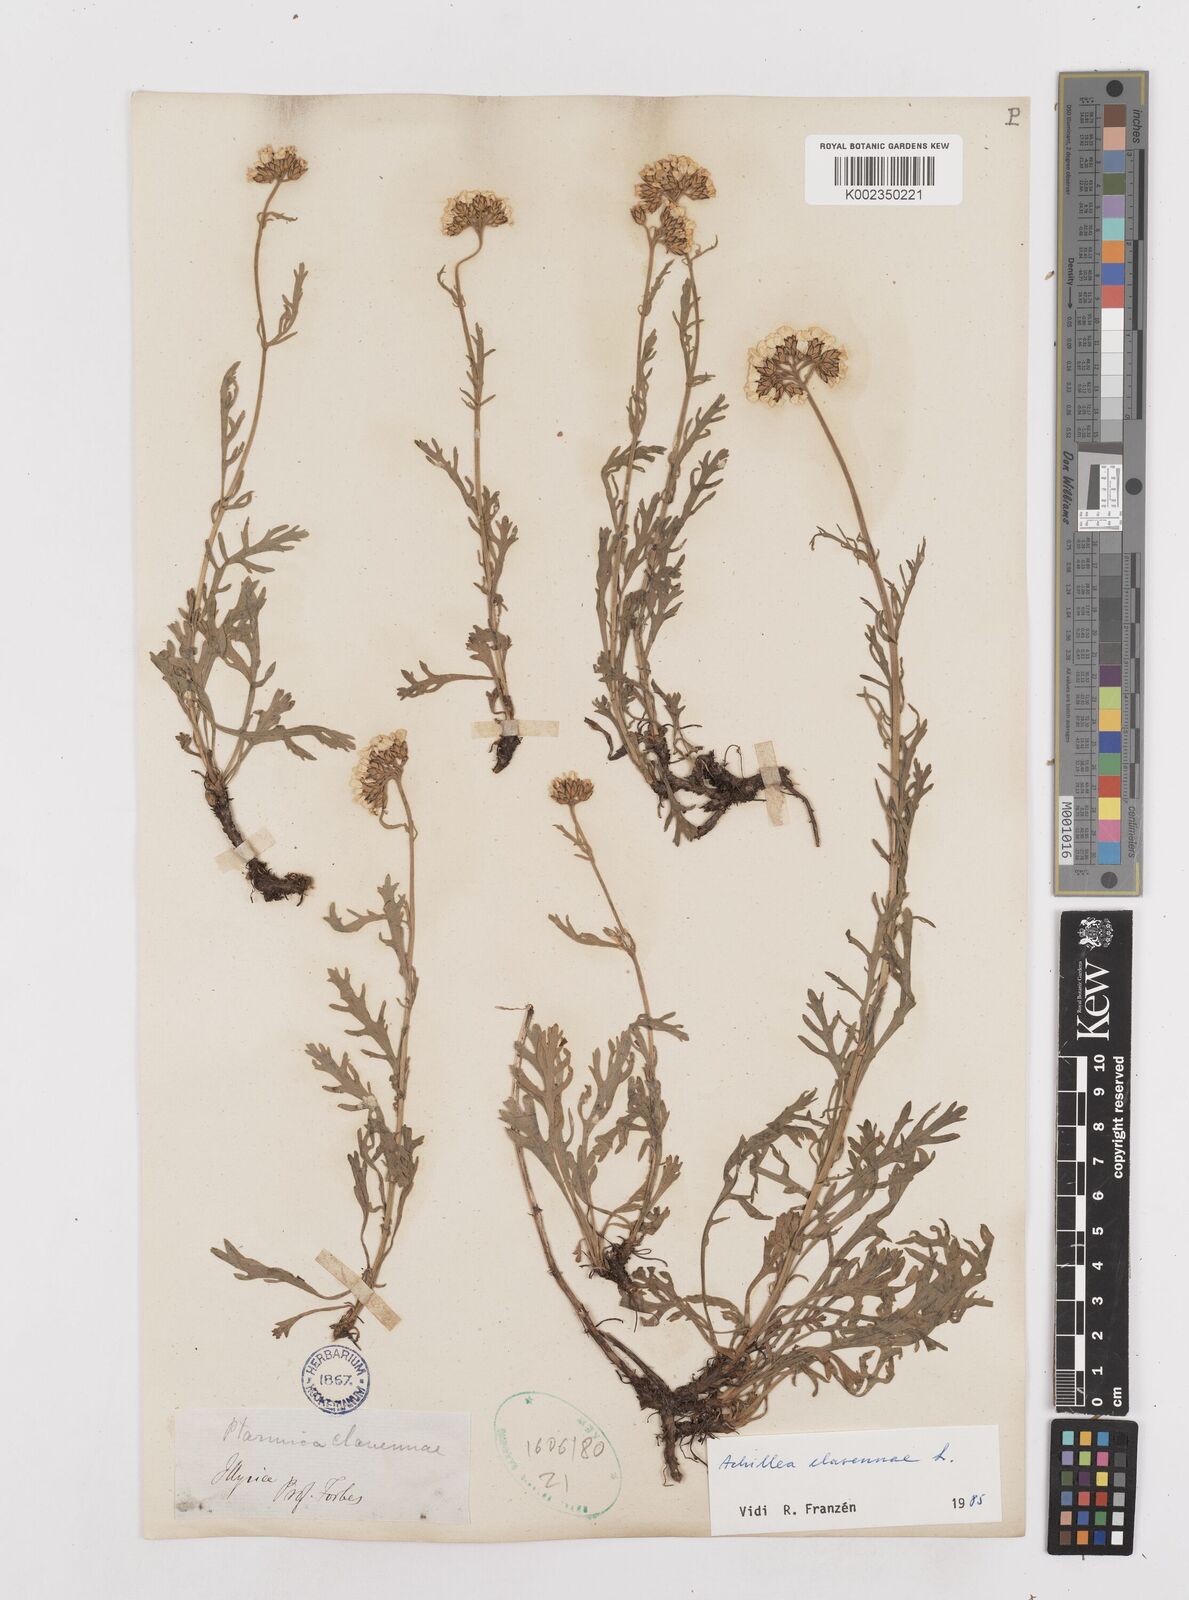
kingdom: Plantae
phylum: Tracheophyta
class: Magnoliopsida
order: Asterales
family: Asteraceae
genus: Achillea
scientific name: Achillea clavennae
